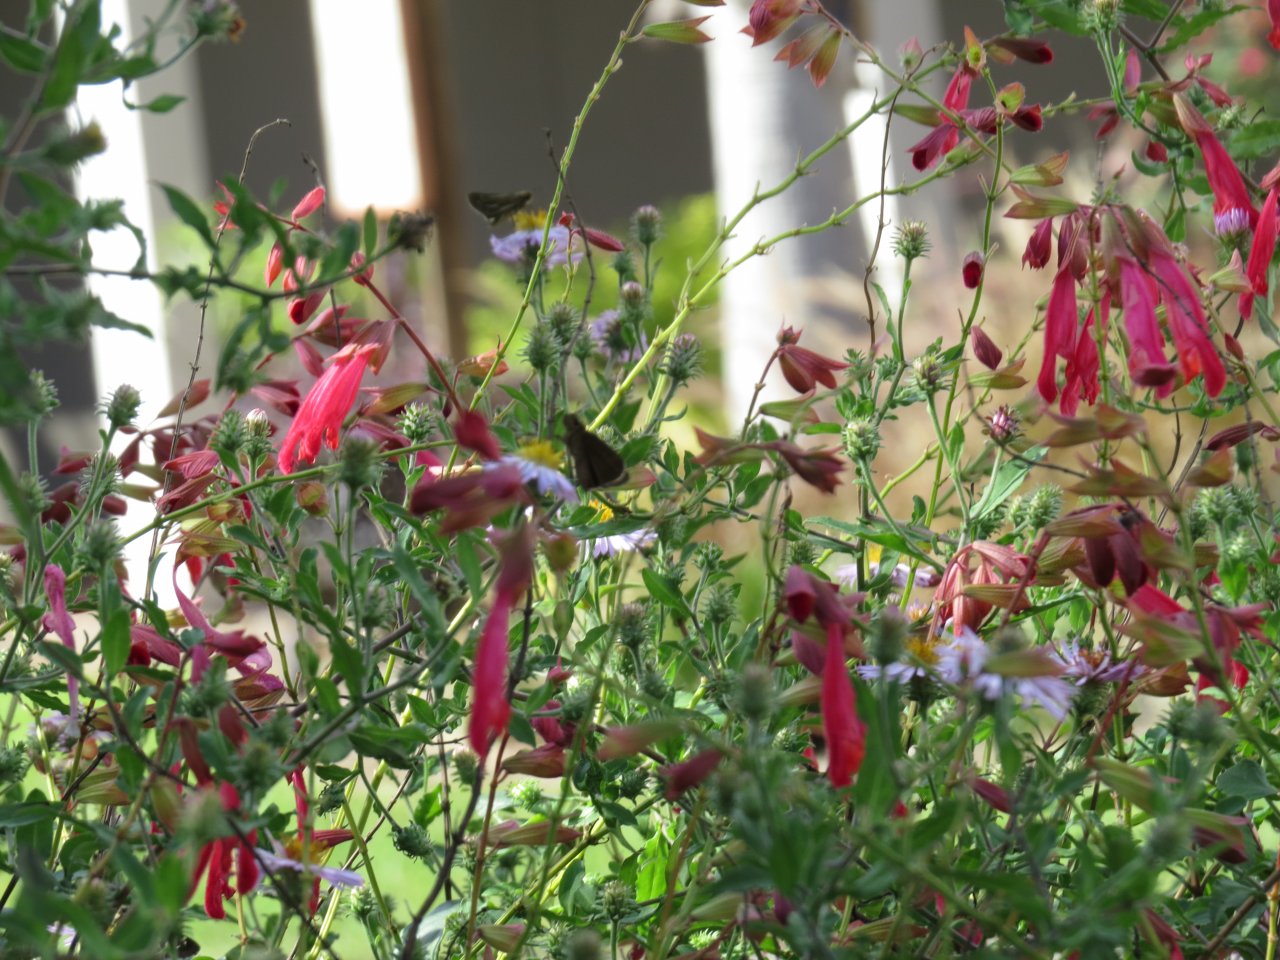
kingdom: Animalia
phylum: Arthropoda
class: Insecta
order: Lepidoptera
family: Hesperiidae
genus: Panoquina
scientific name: Panoquina panoquin
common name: Salt Marsh Skipper
